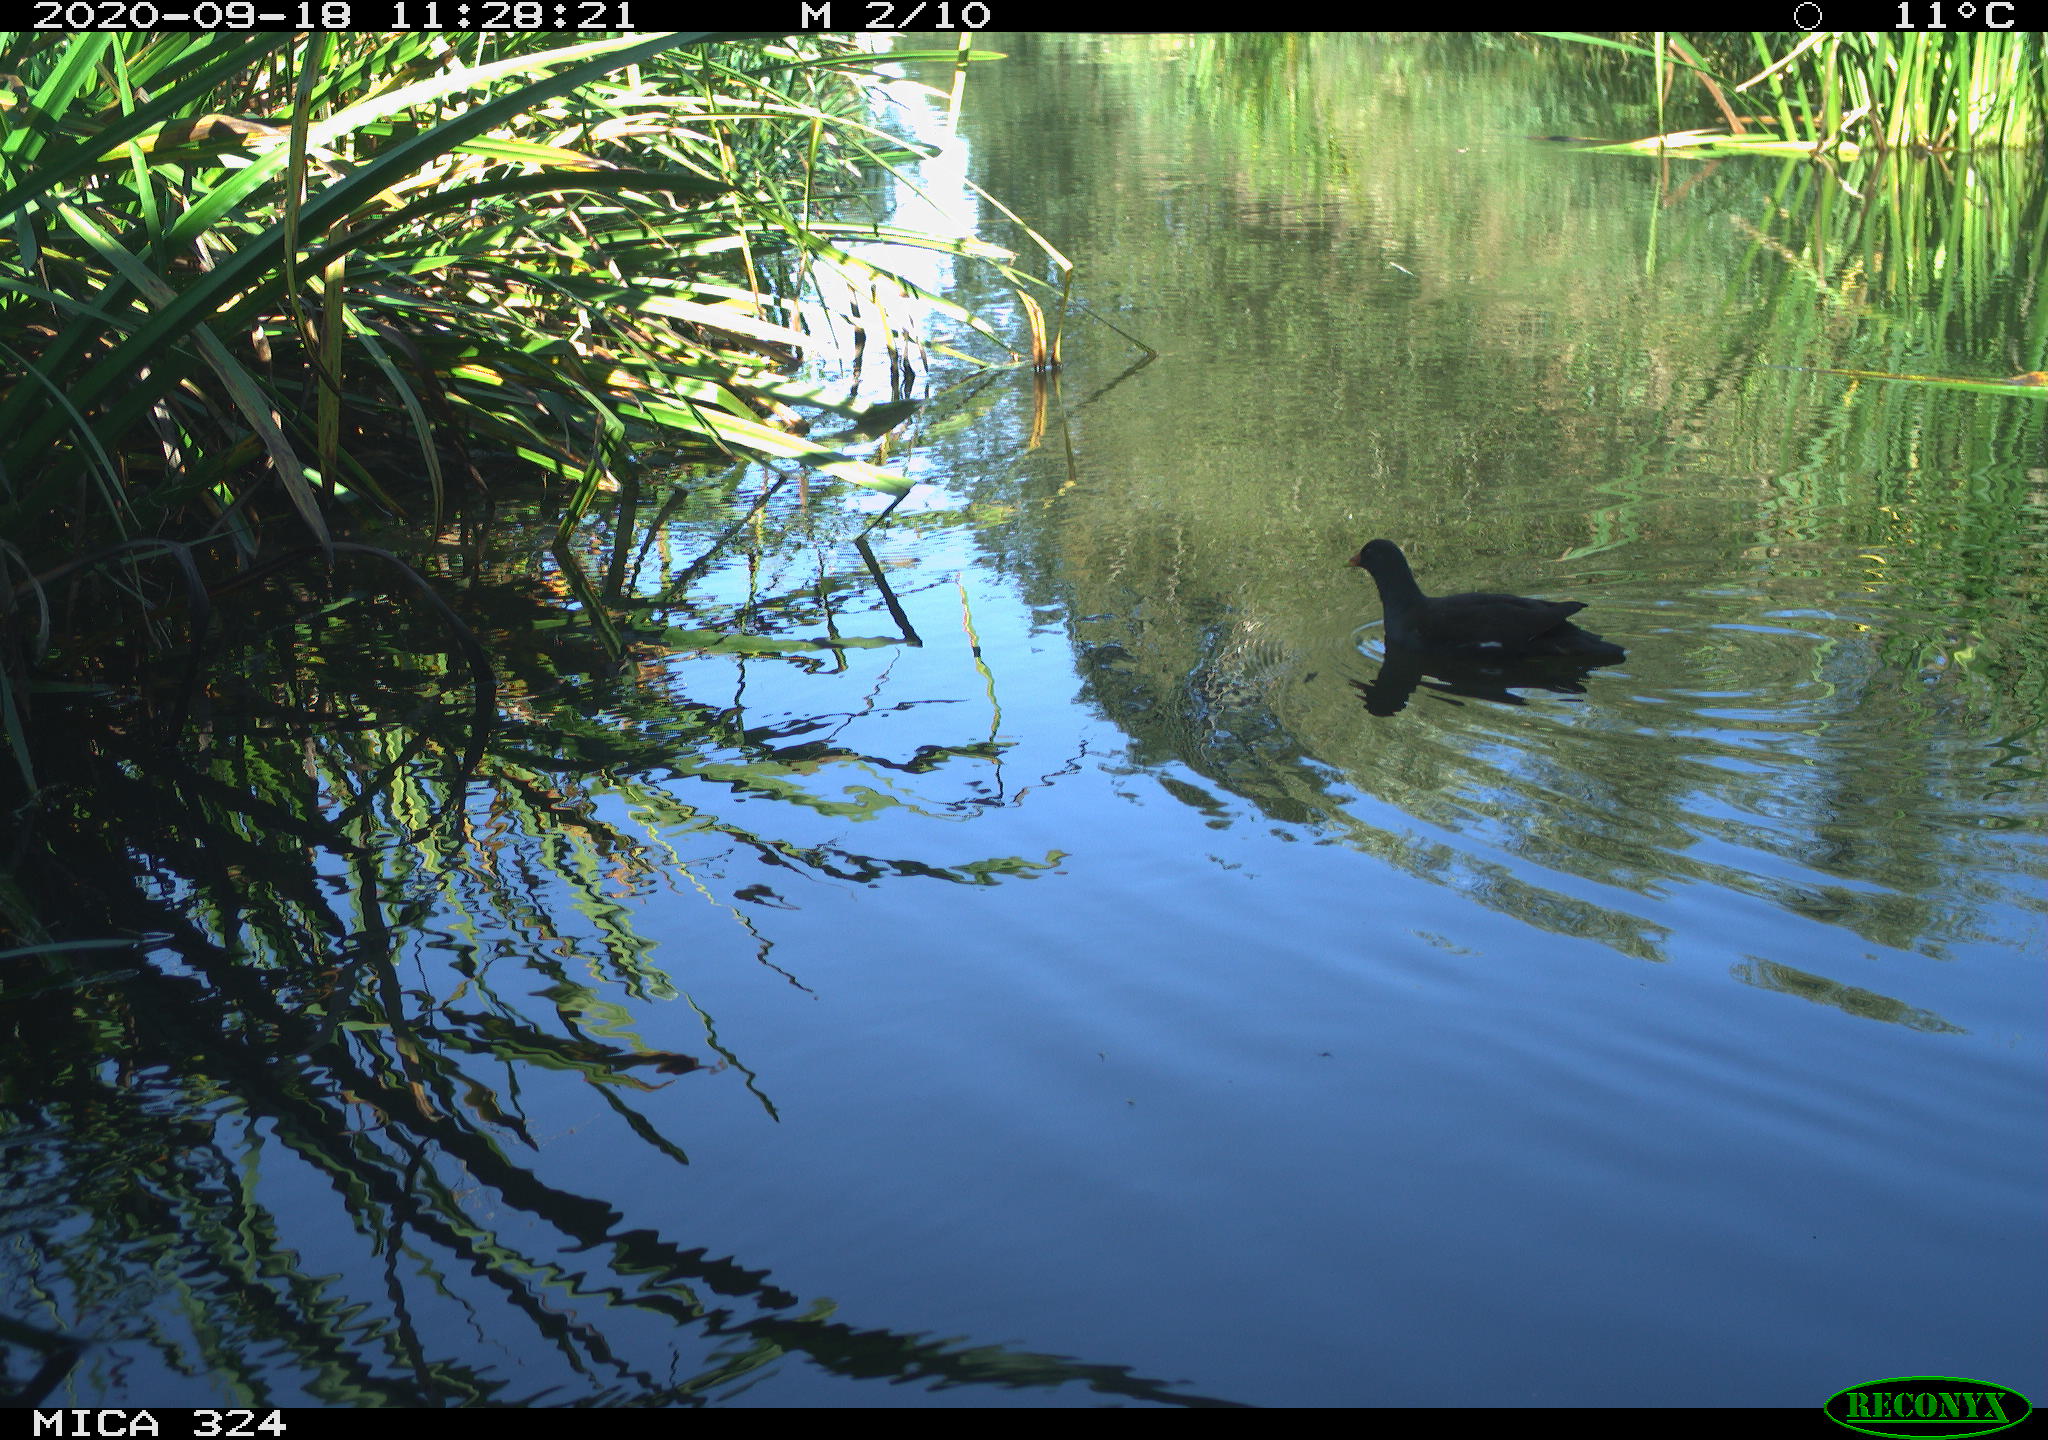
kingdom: Animalia
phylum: Chordata
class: Aves
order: Gruiformes
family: Rallidae
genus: Gallinula
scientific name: Gallinula chloropus
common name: Common moorhen
